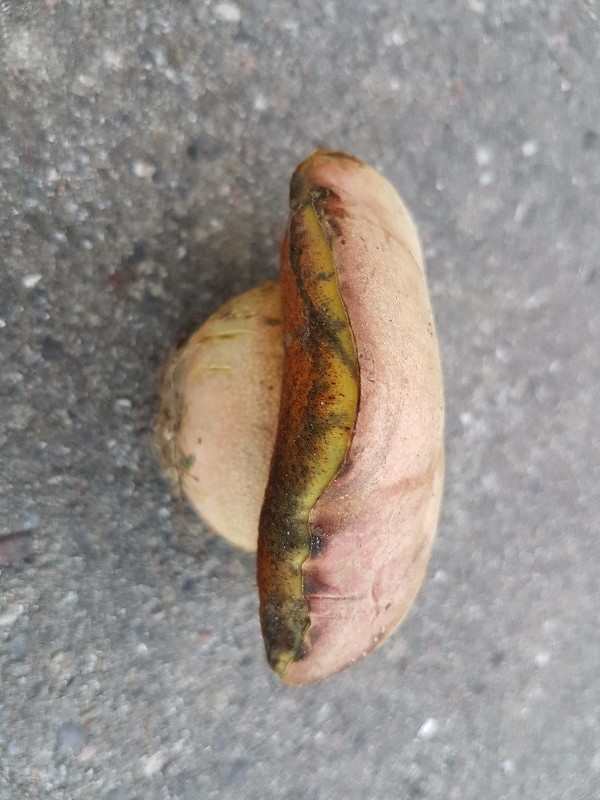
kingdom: Fungi
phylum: Basidiomycota
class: Agaricomycetes
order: Boletales
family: Boletaceae
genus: Rubroboletus
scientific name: Rubroboletus legaliae
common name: djævle-rørhat
